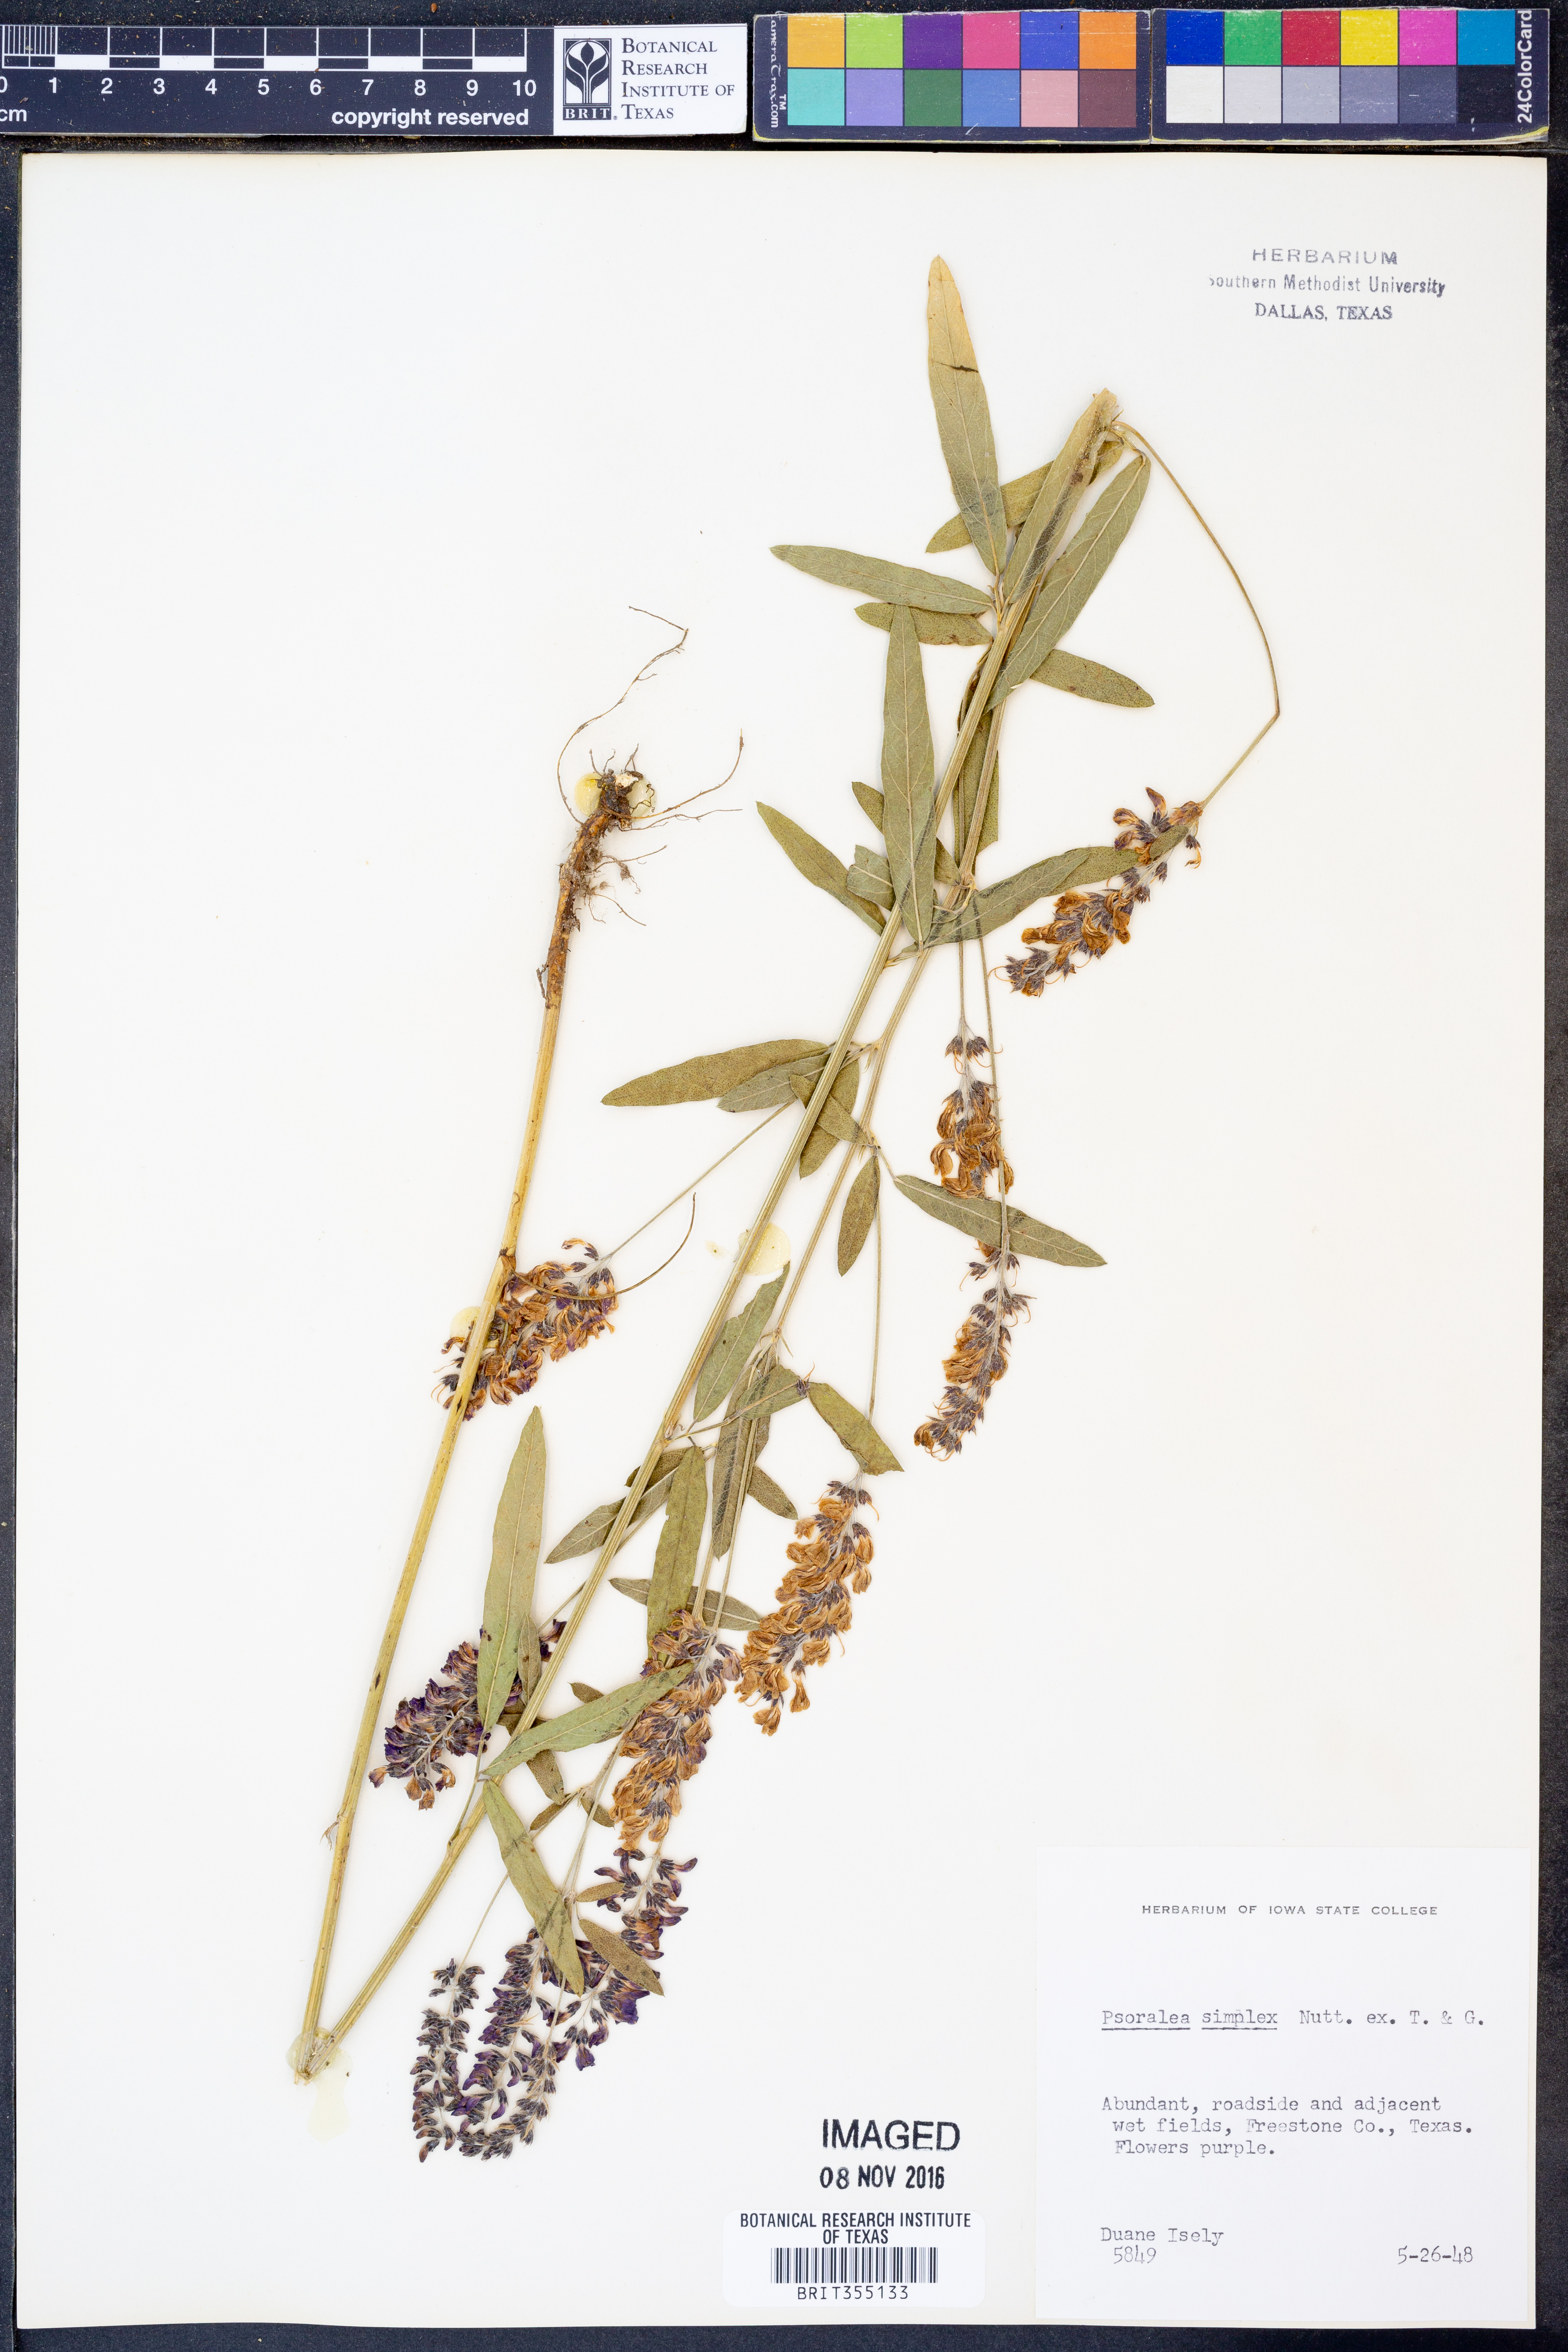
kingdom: Plantae
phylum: Tracheophyta
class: Magnoliopsida
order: Fabales
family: Fabaceae
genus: Orbexilum
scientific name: Orbexilum simplex
